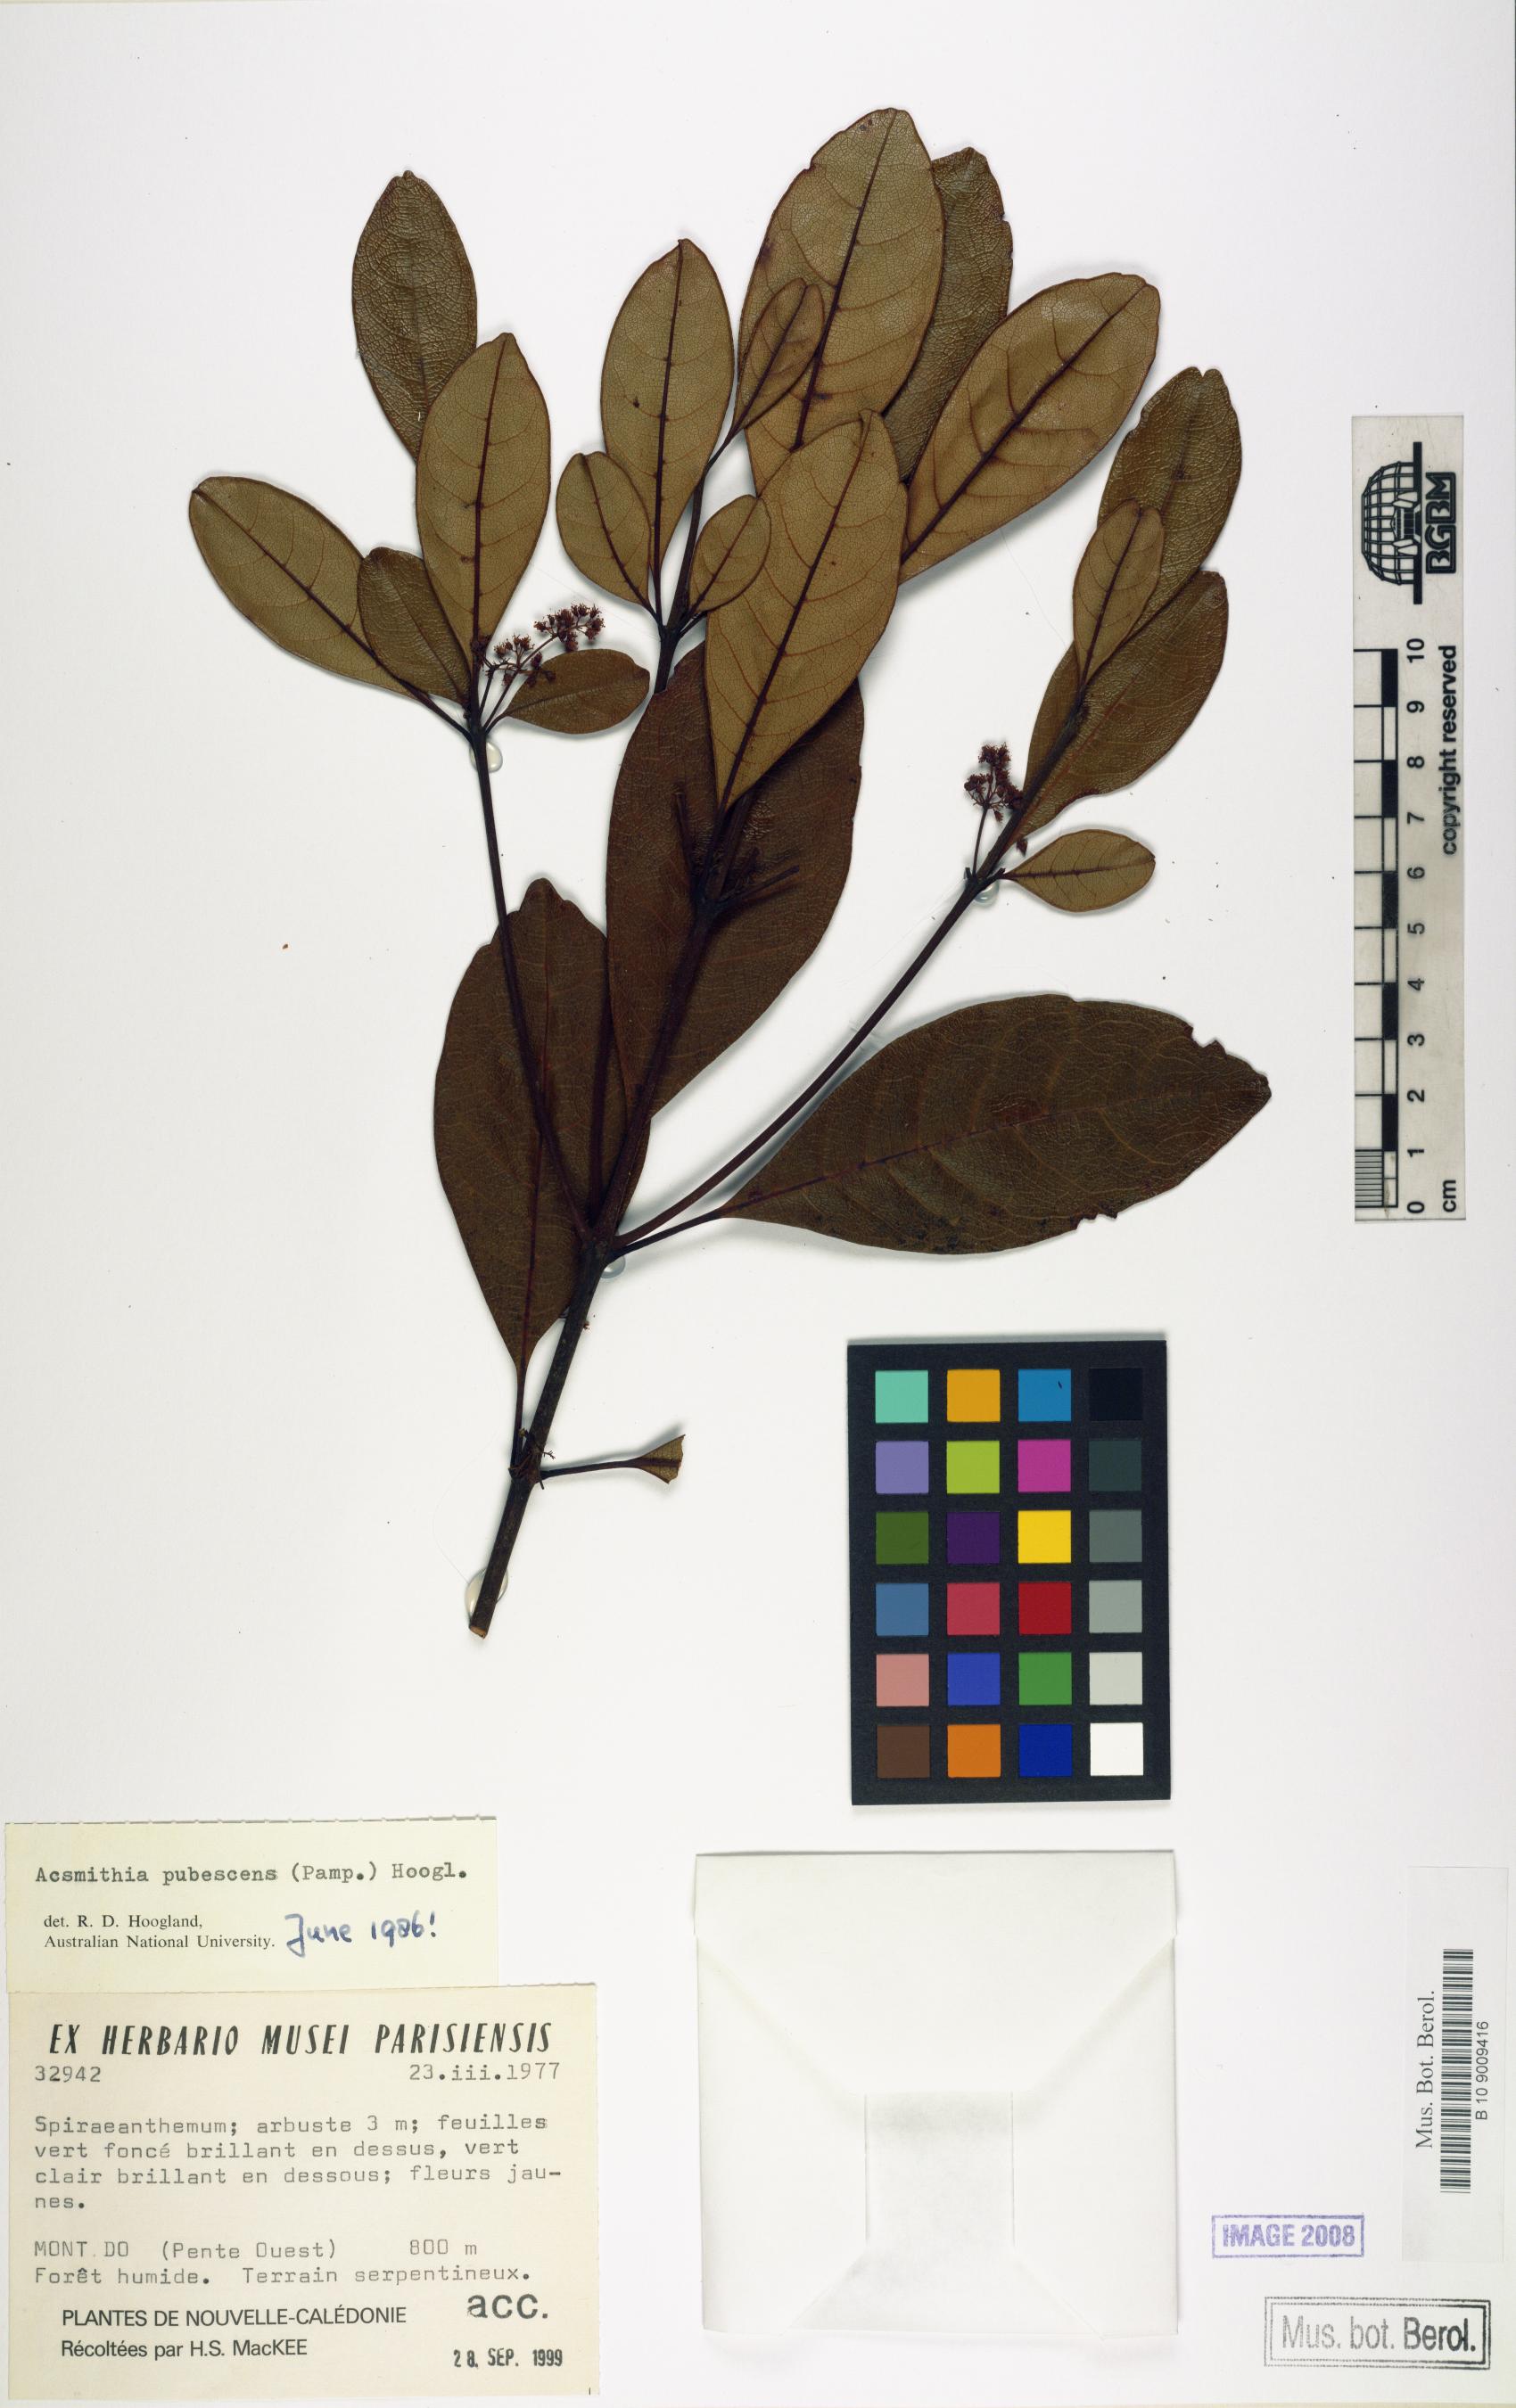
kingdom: Plantae
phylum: Tracheophyta
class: Magnoliopsida
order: Oxalidales
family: Cunoniaceae
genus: Spiraeanthemum
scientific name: Spiraeanthemum pubescens
